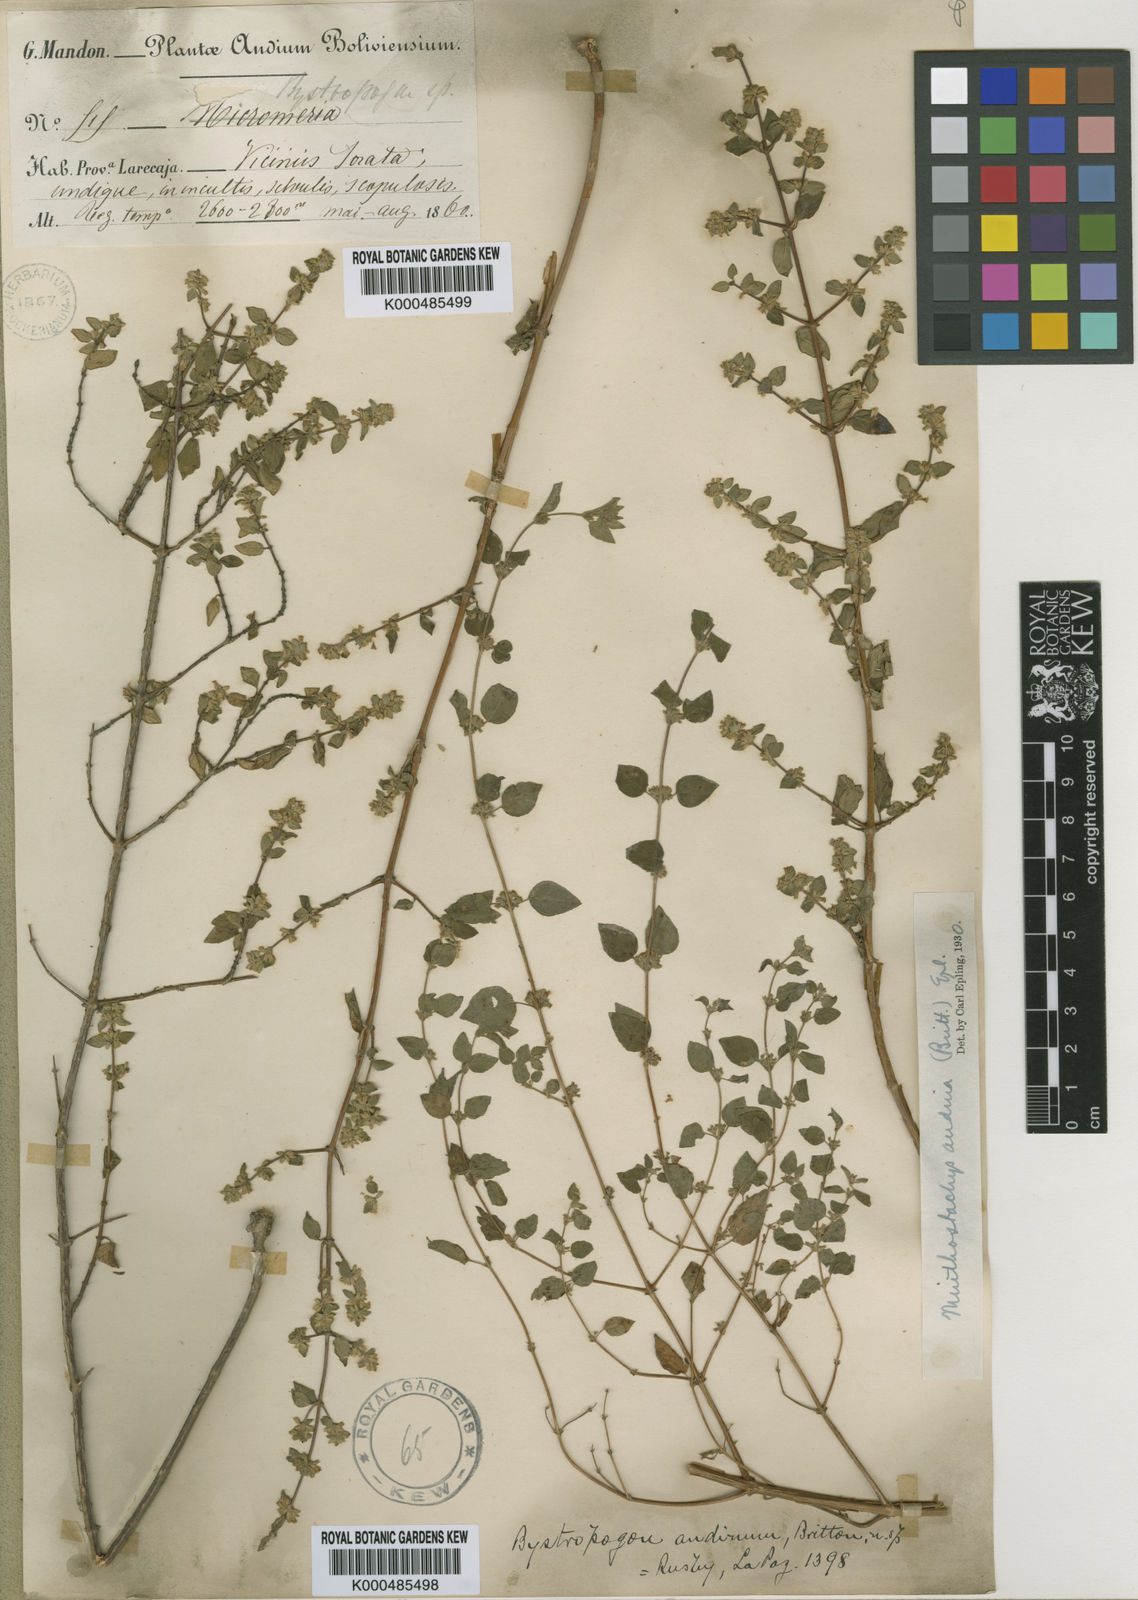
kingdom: Plantae
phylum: Tracheophyta
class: Magnoliopsida
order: Lamiales
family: Lamiaceae
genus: Minthostachys
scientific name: Minthostachys andina
